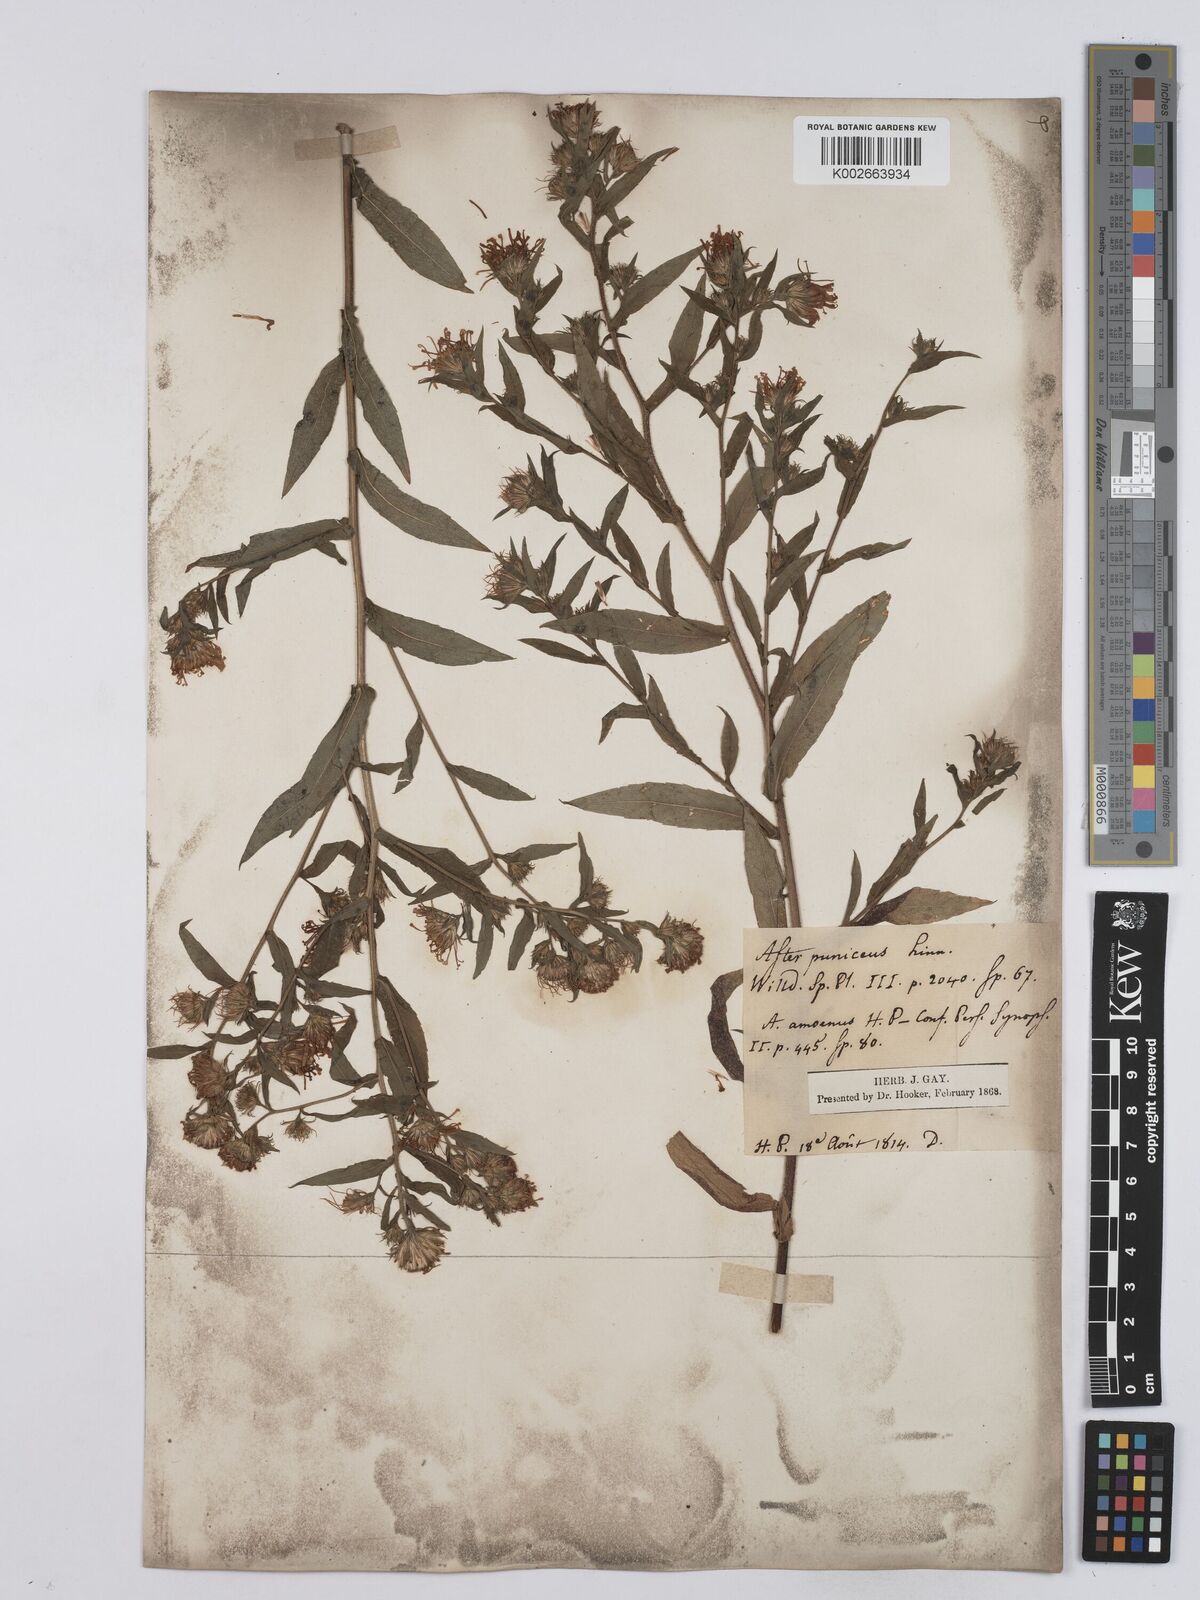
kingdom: Plantae
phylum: Tracheophyta
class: Magnoliopsida
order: Asterales
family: Asteraceae
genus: Symphyotrichum
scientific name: Symphyotrichum puniceum
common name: Bog aster
